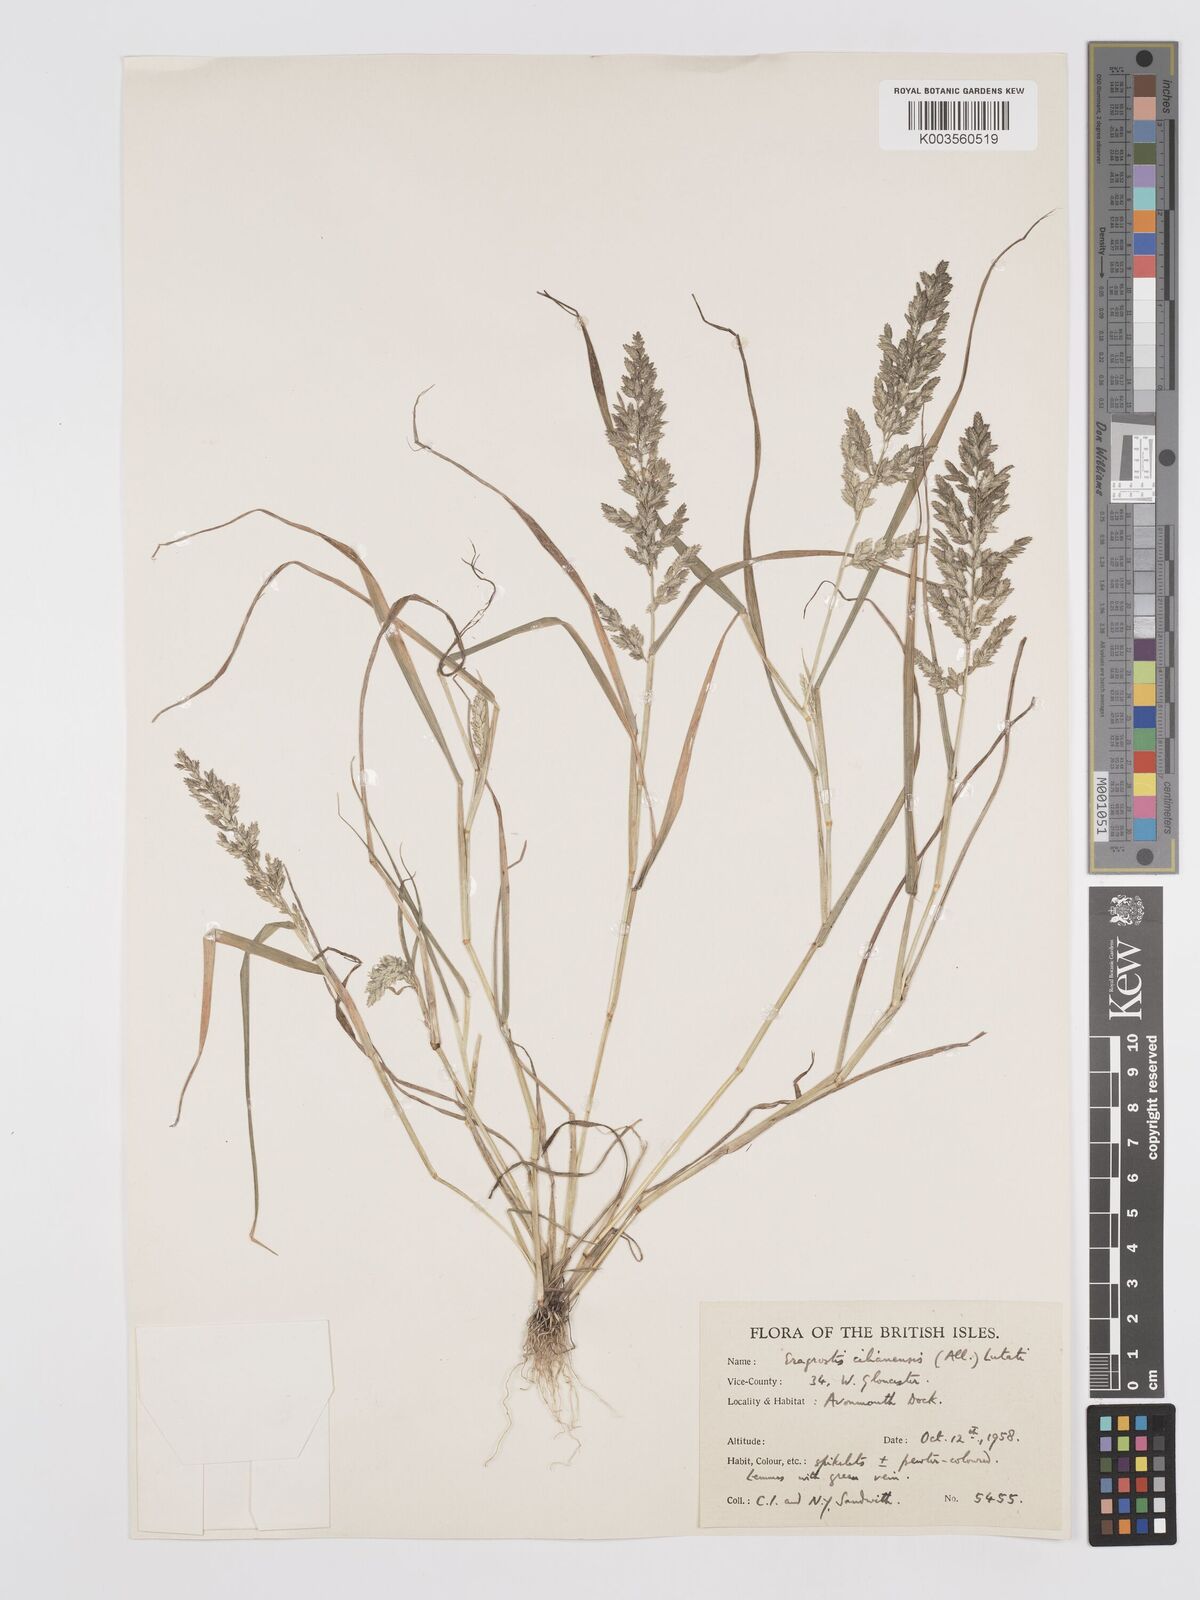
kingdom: Plantae
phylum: Tracheophyta
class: Liliopsida
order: Poales
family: Poaceae
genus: Eragrostis
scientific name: Eragrostis cilianensis
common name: Stinkgrass
